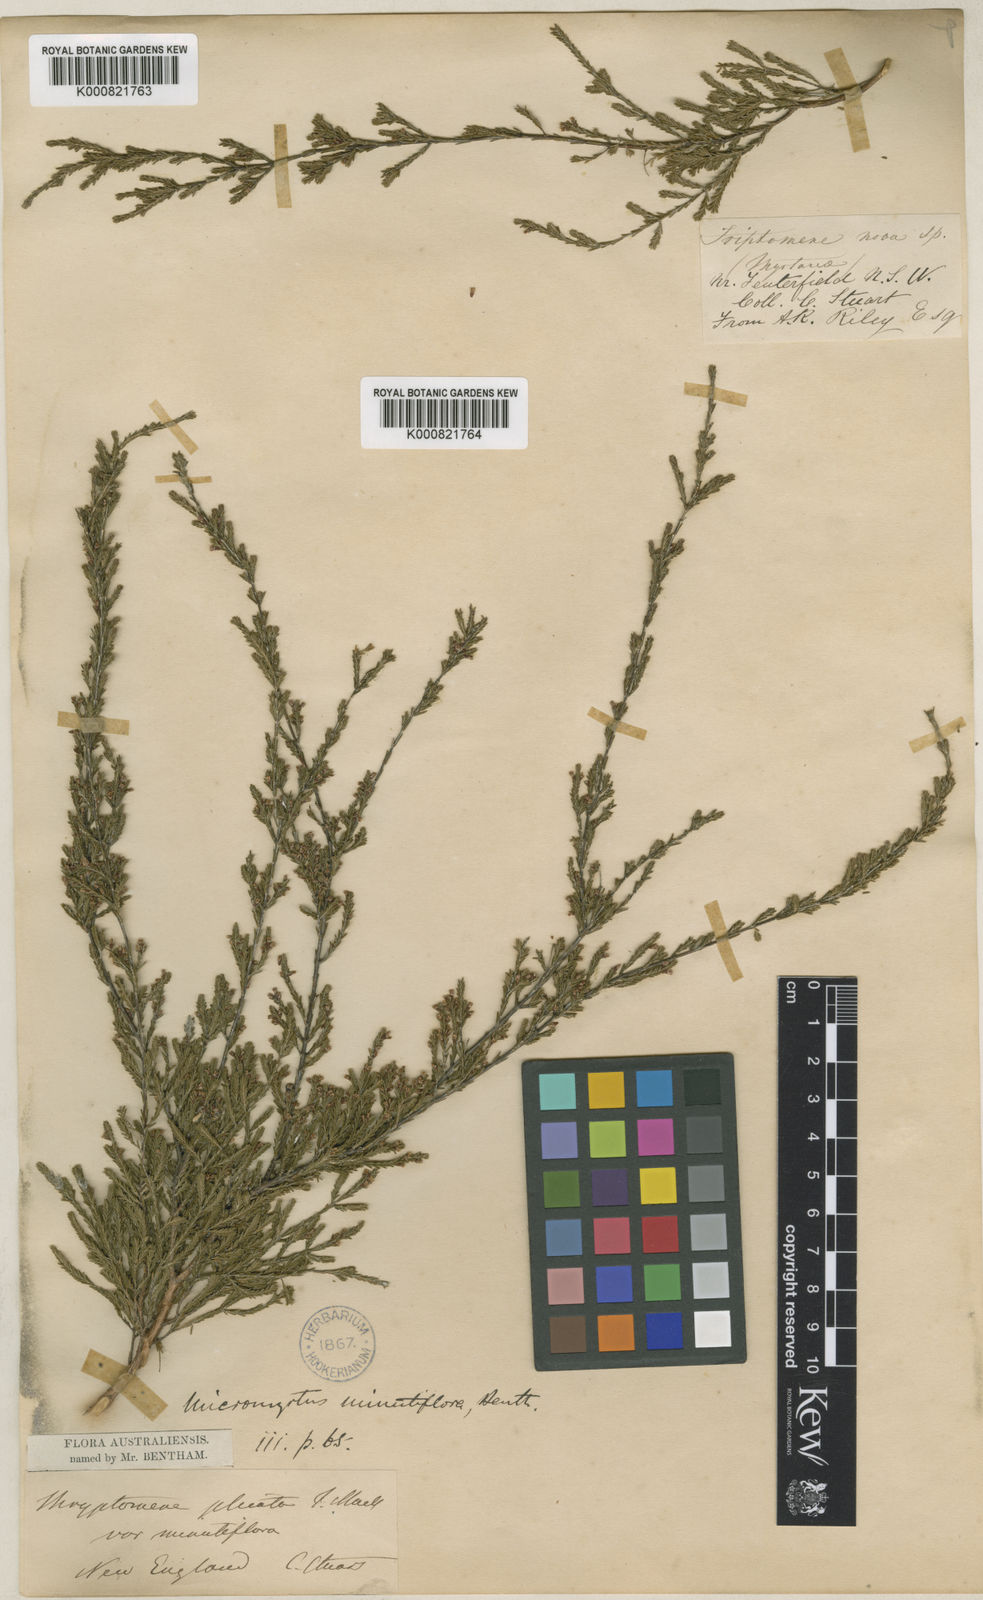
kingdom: Plantae
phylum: Tracheophyta
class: Magnoliopsida
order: Myrtales
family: Myrtaceae
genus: Micromyrtus
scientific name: Micromyrtus minutiflora
